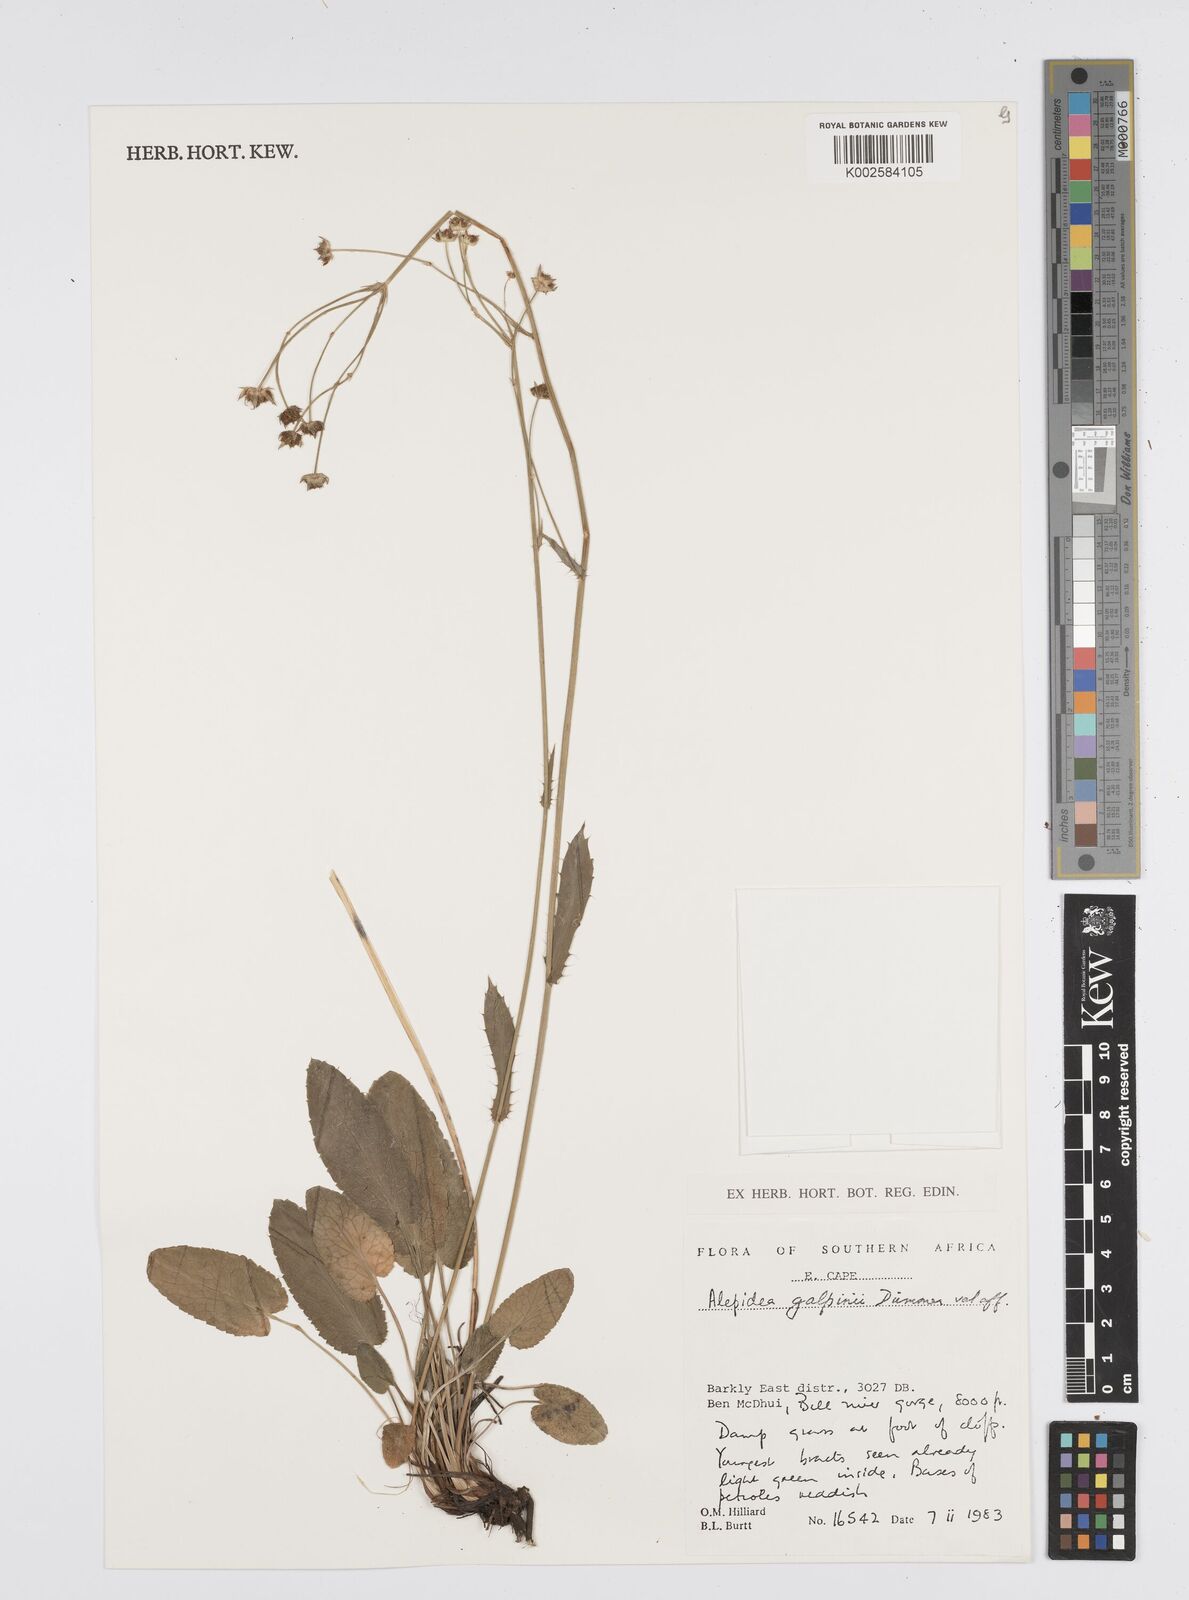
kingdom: Plantae
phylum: Tracheophyta
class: Magnoliopsida
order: Apiales
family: Apiaceae
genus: Alepidea
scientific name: Alepidea galpinii
